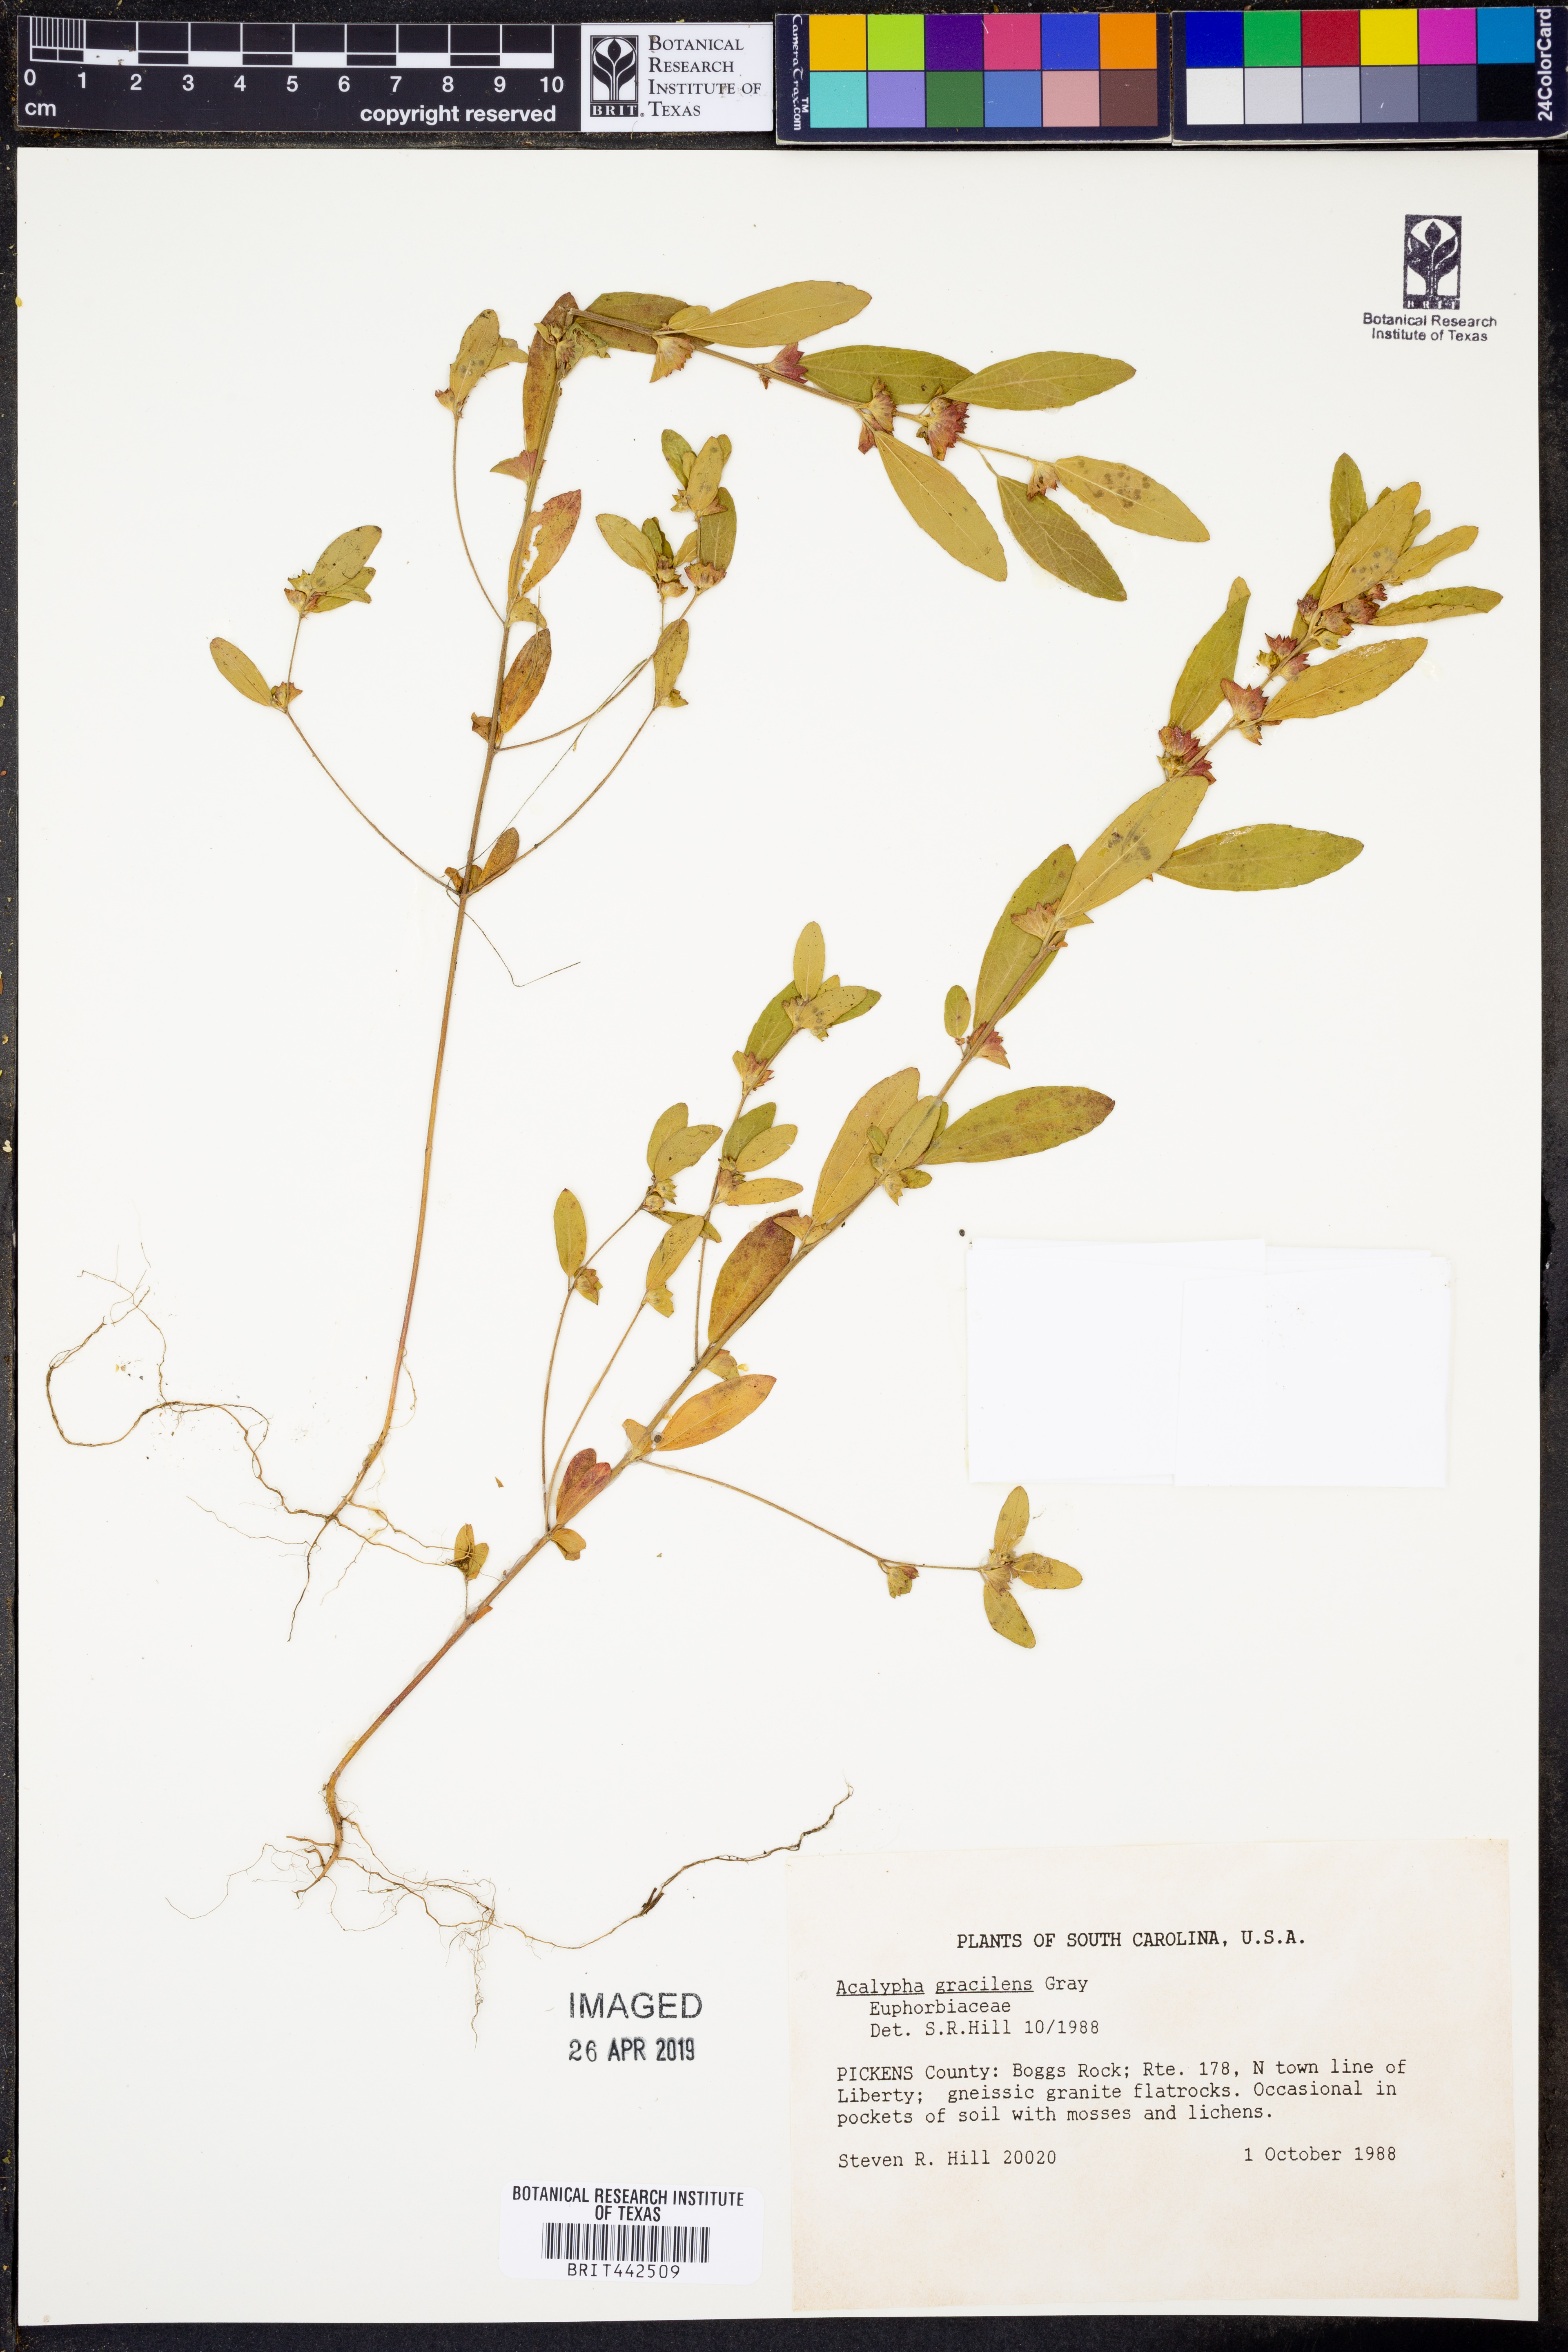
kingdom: Plantae
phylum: Tracheophyta
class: Magnoliopsida
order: Malpighiales
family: Euphorbiaceae
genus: Acalypha
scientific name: Acalypha gracilens
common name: Slender three-seeded mercury
